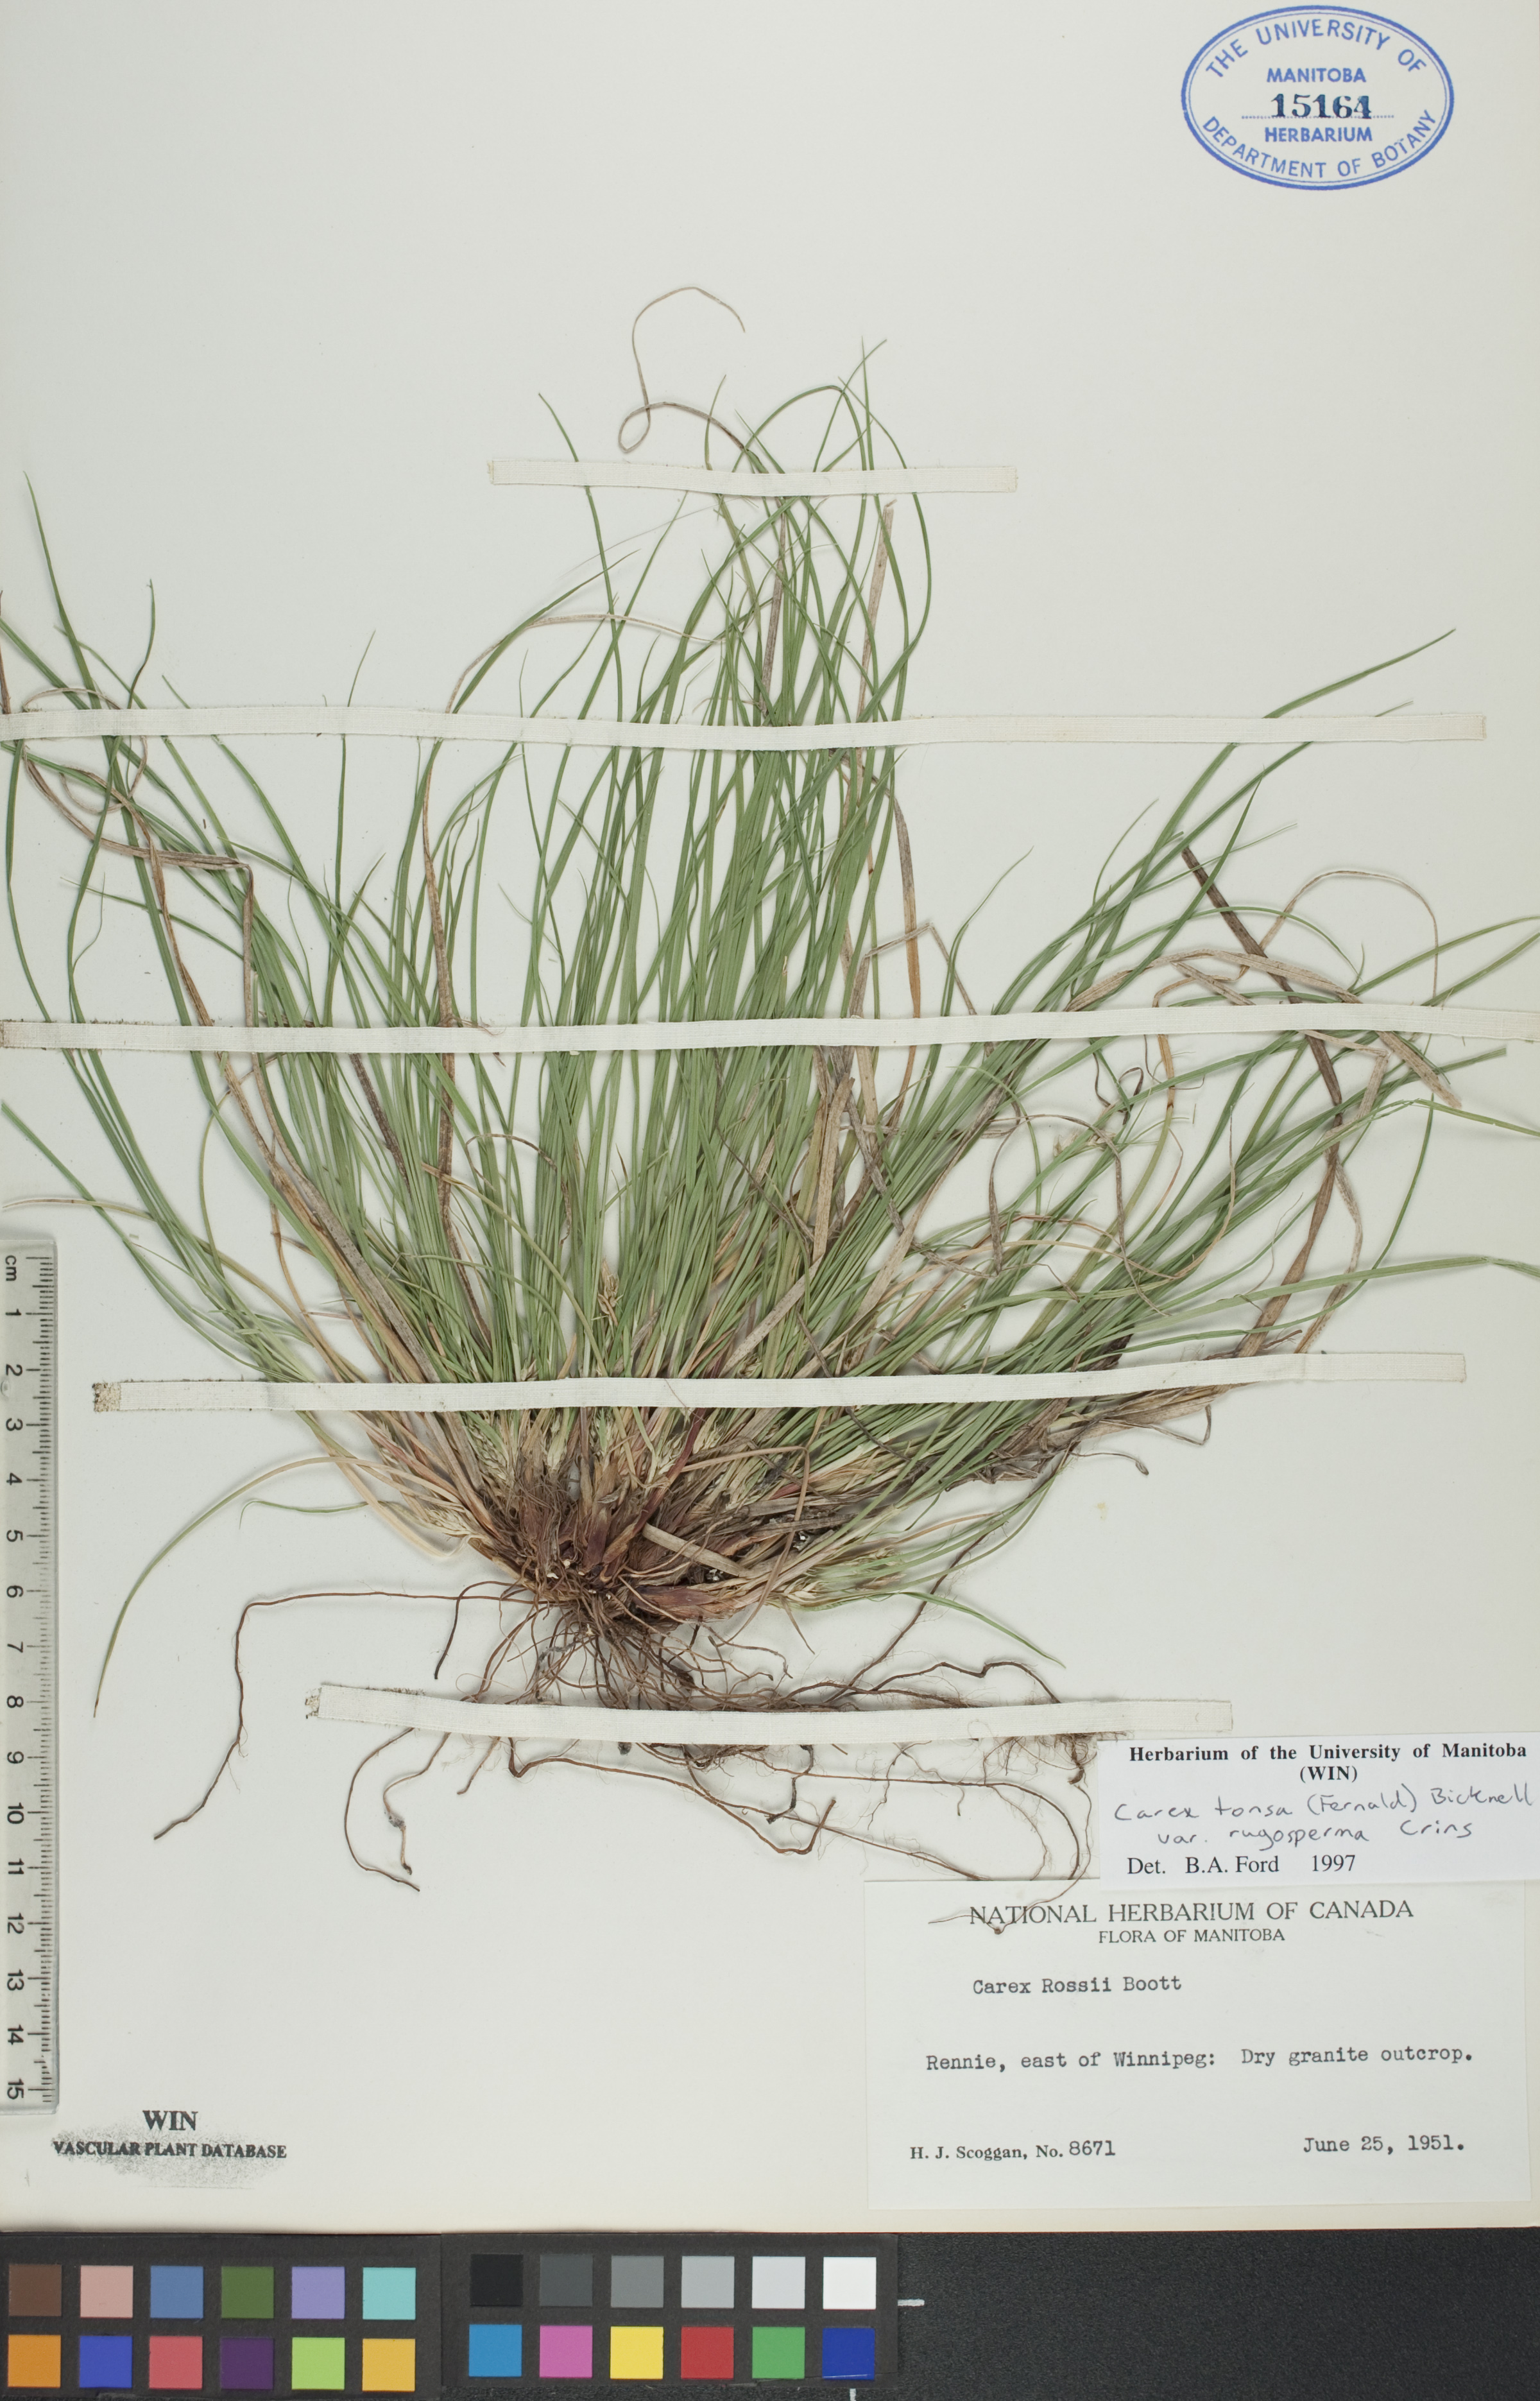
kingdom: Plantae
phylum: Tracheophyta
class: Liliopsida
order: Poales
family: Cyperaceae
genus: Carex
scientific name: Carex tonsa
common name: Bald sedge
